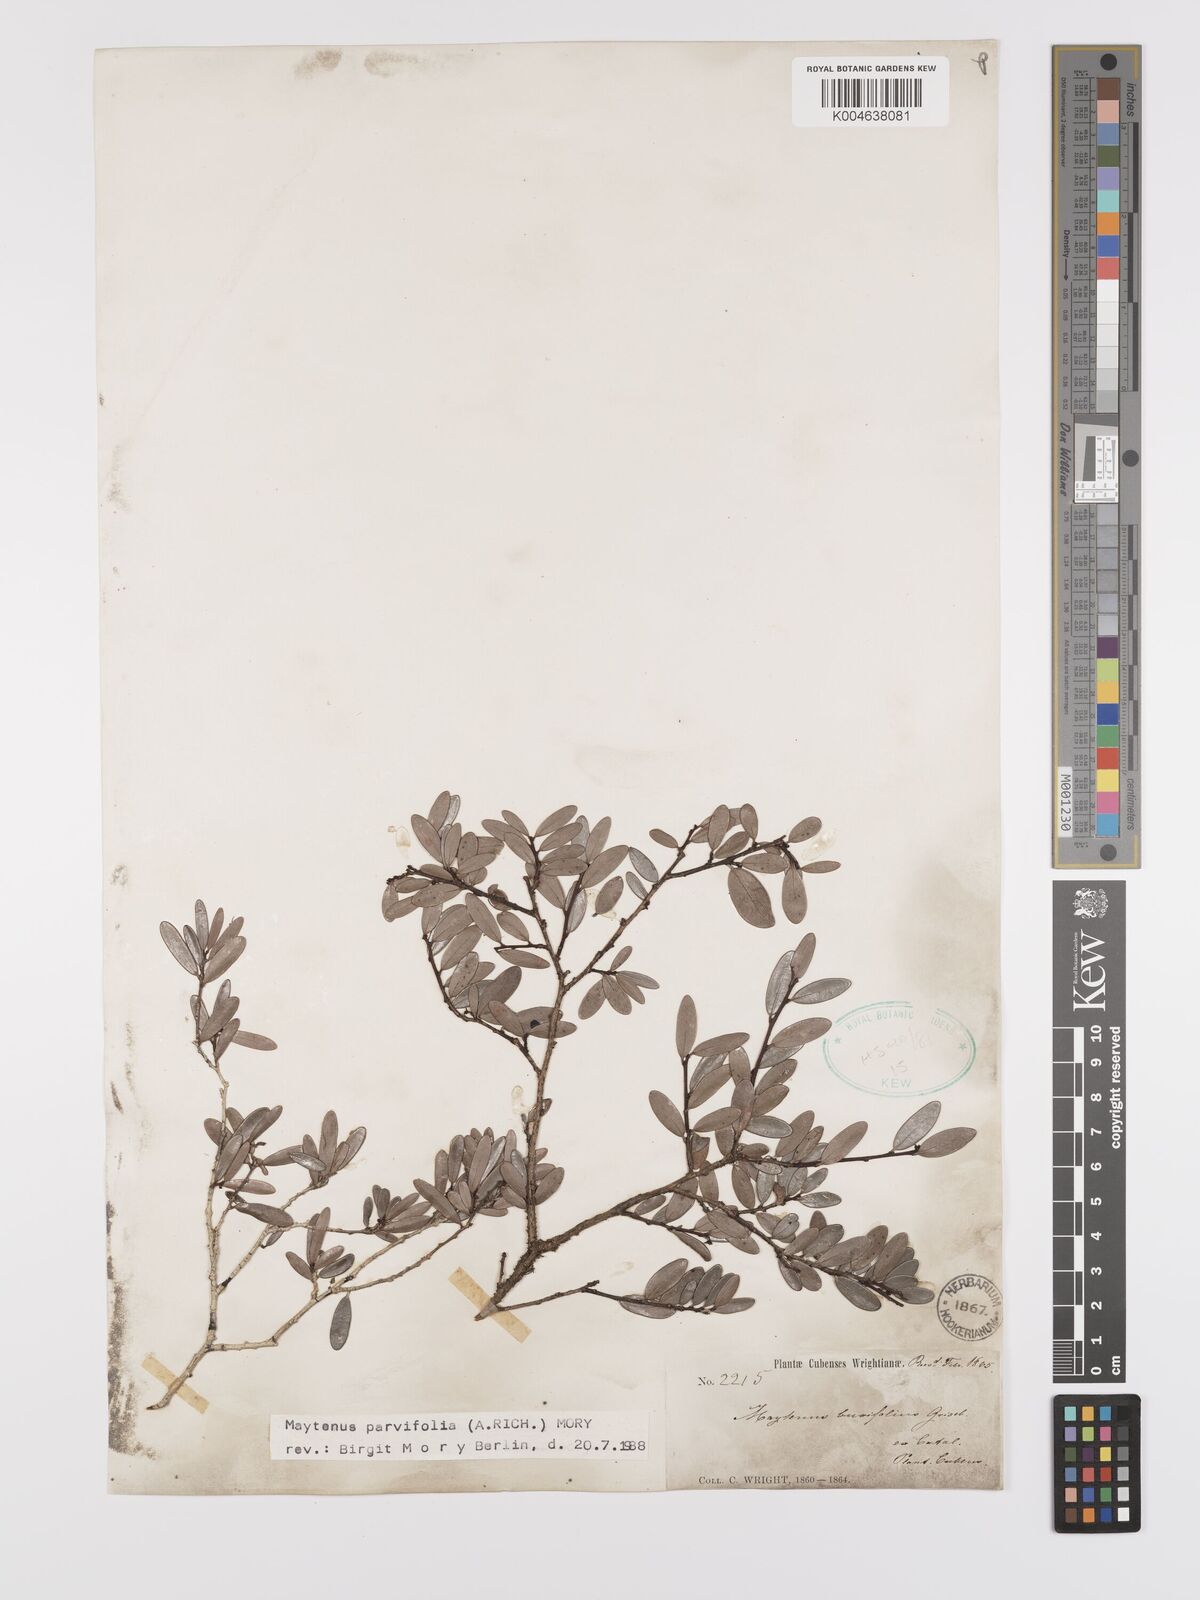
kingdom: Plantae
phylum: Tracheophyta
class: Magnoliopsida
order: Celastrales
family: Celastraceae
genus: Maytenus
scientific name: Maytenus parvifolia
